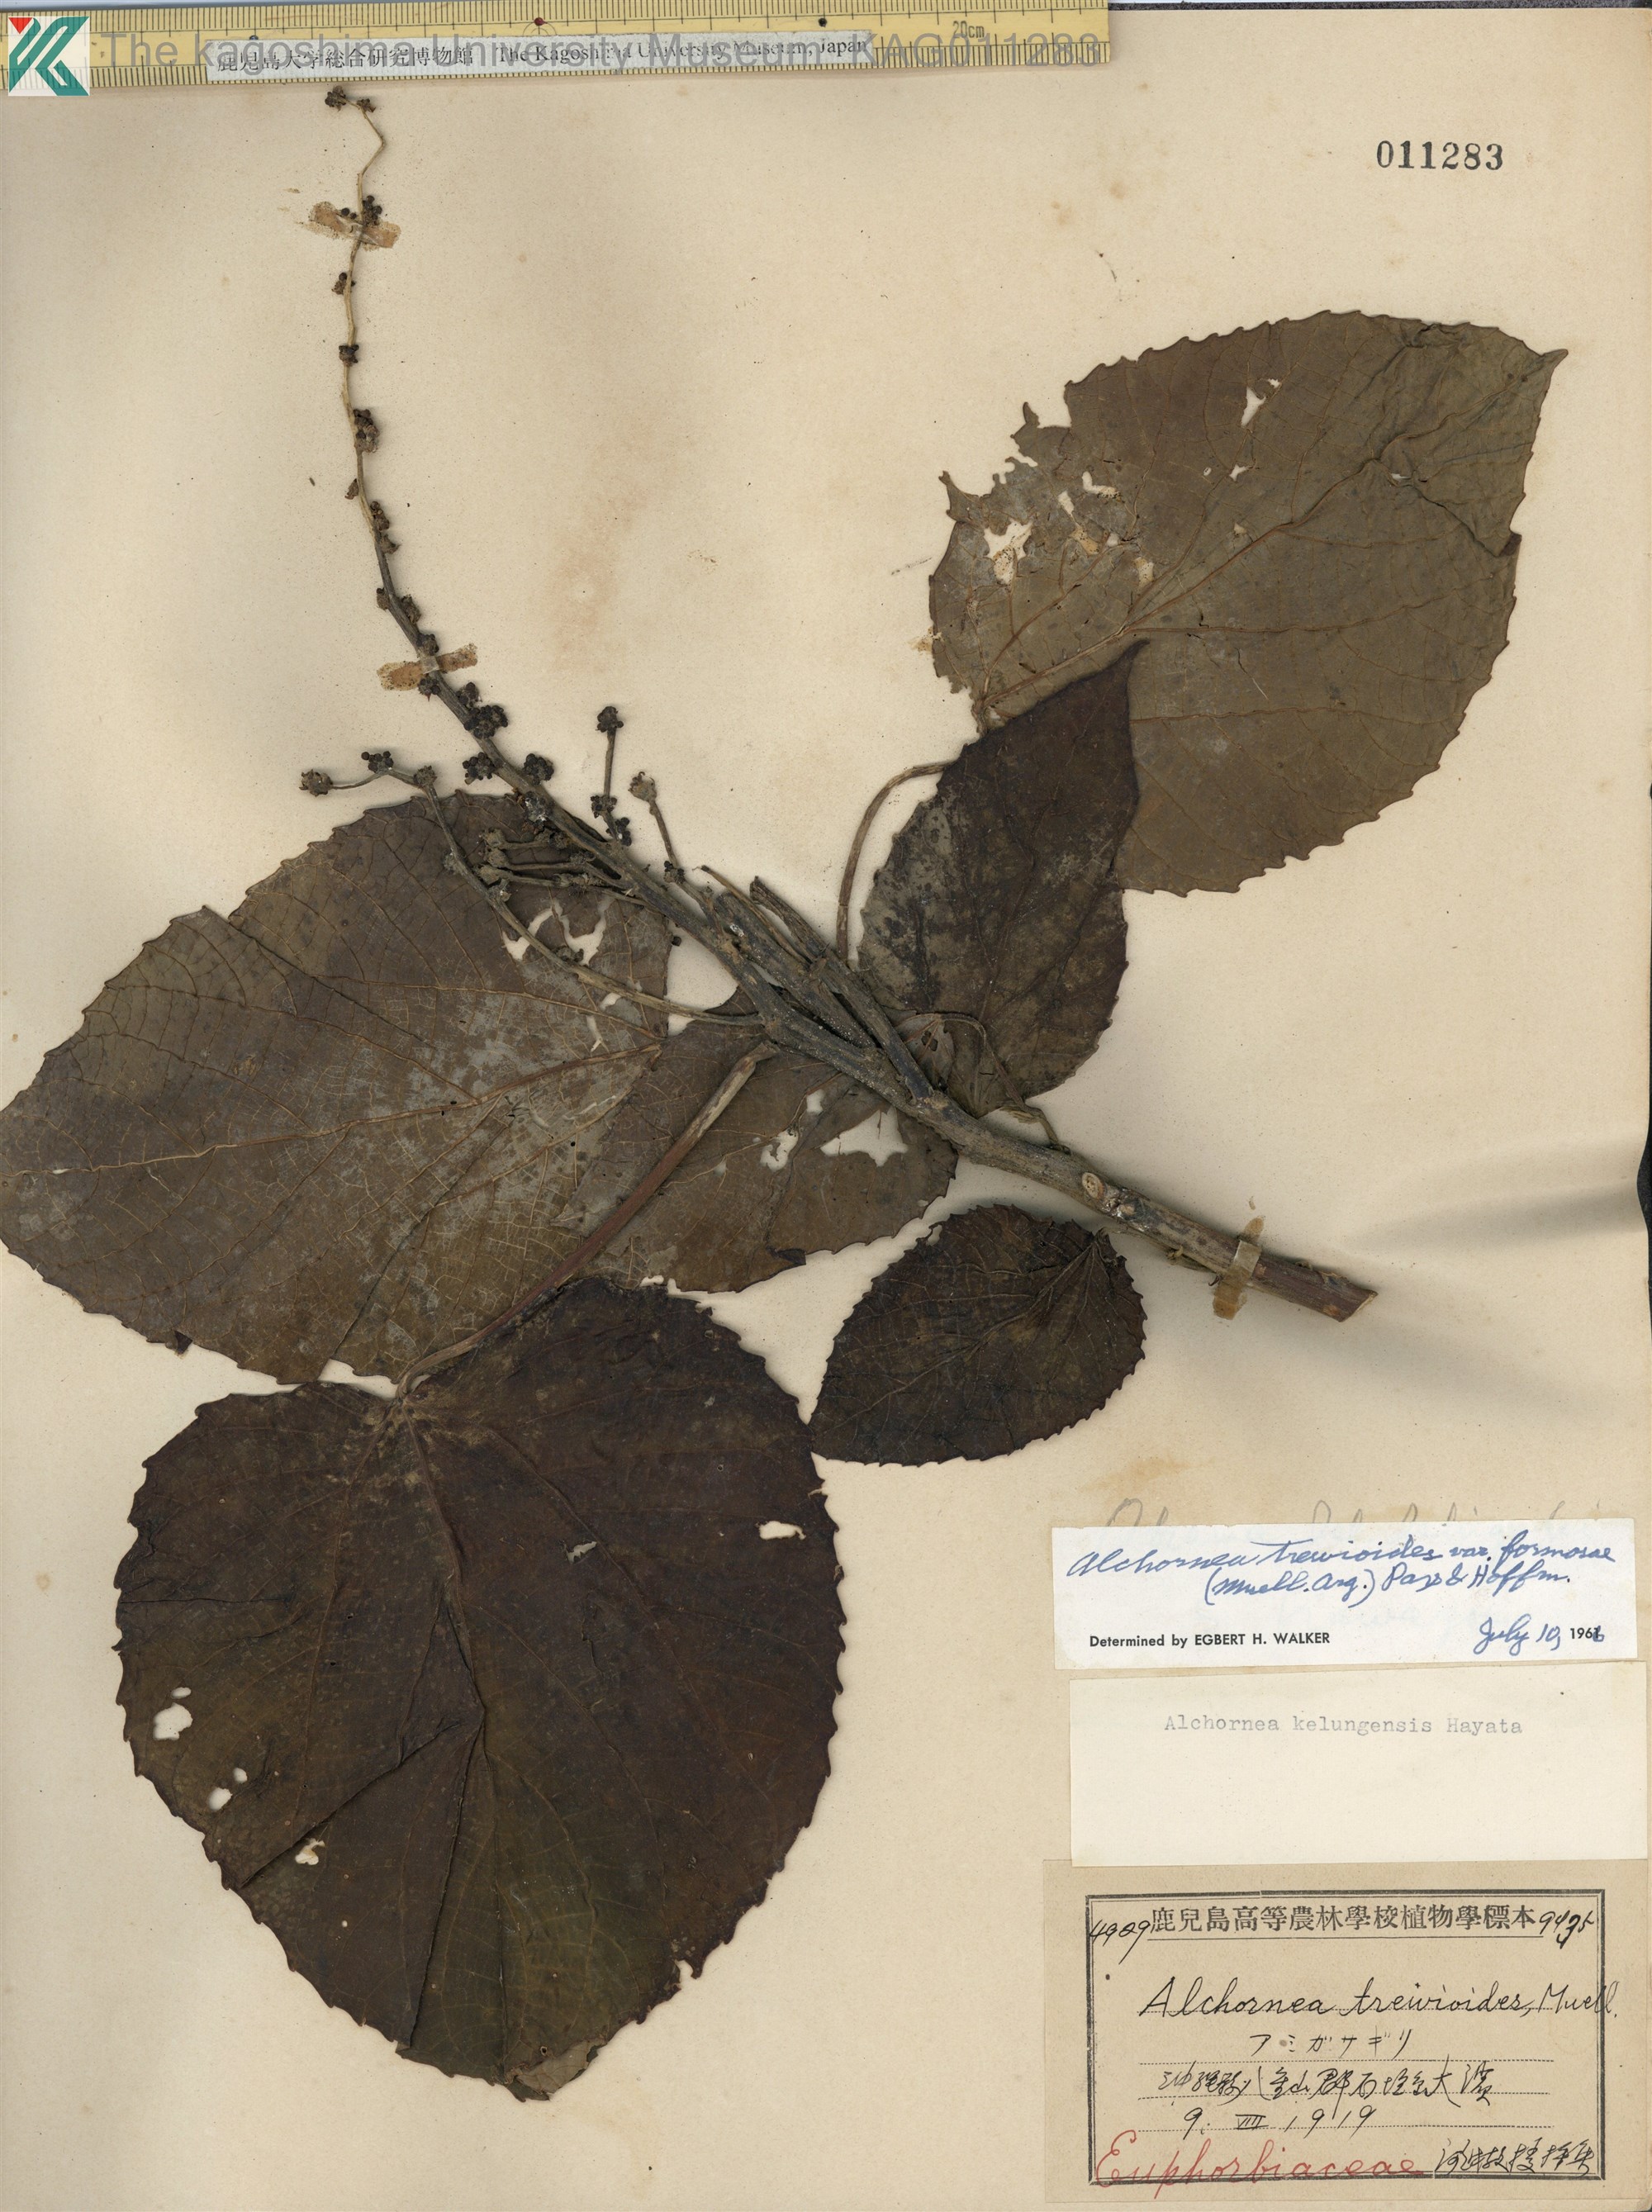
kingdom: Plantae
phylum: Tracheophyta
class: Magnoliopsida
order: Malpighiales
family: Euphorbiaceae
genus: Alchornea
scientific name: Alchornea liukiuensis
